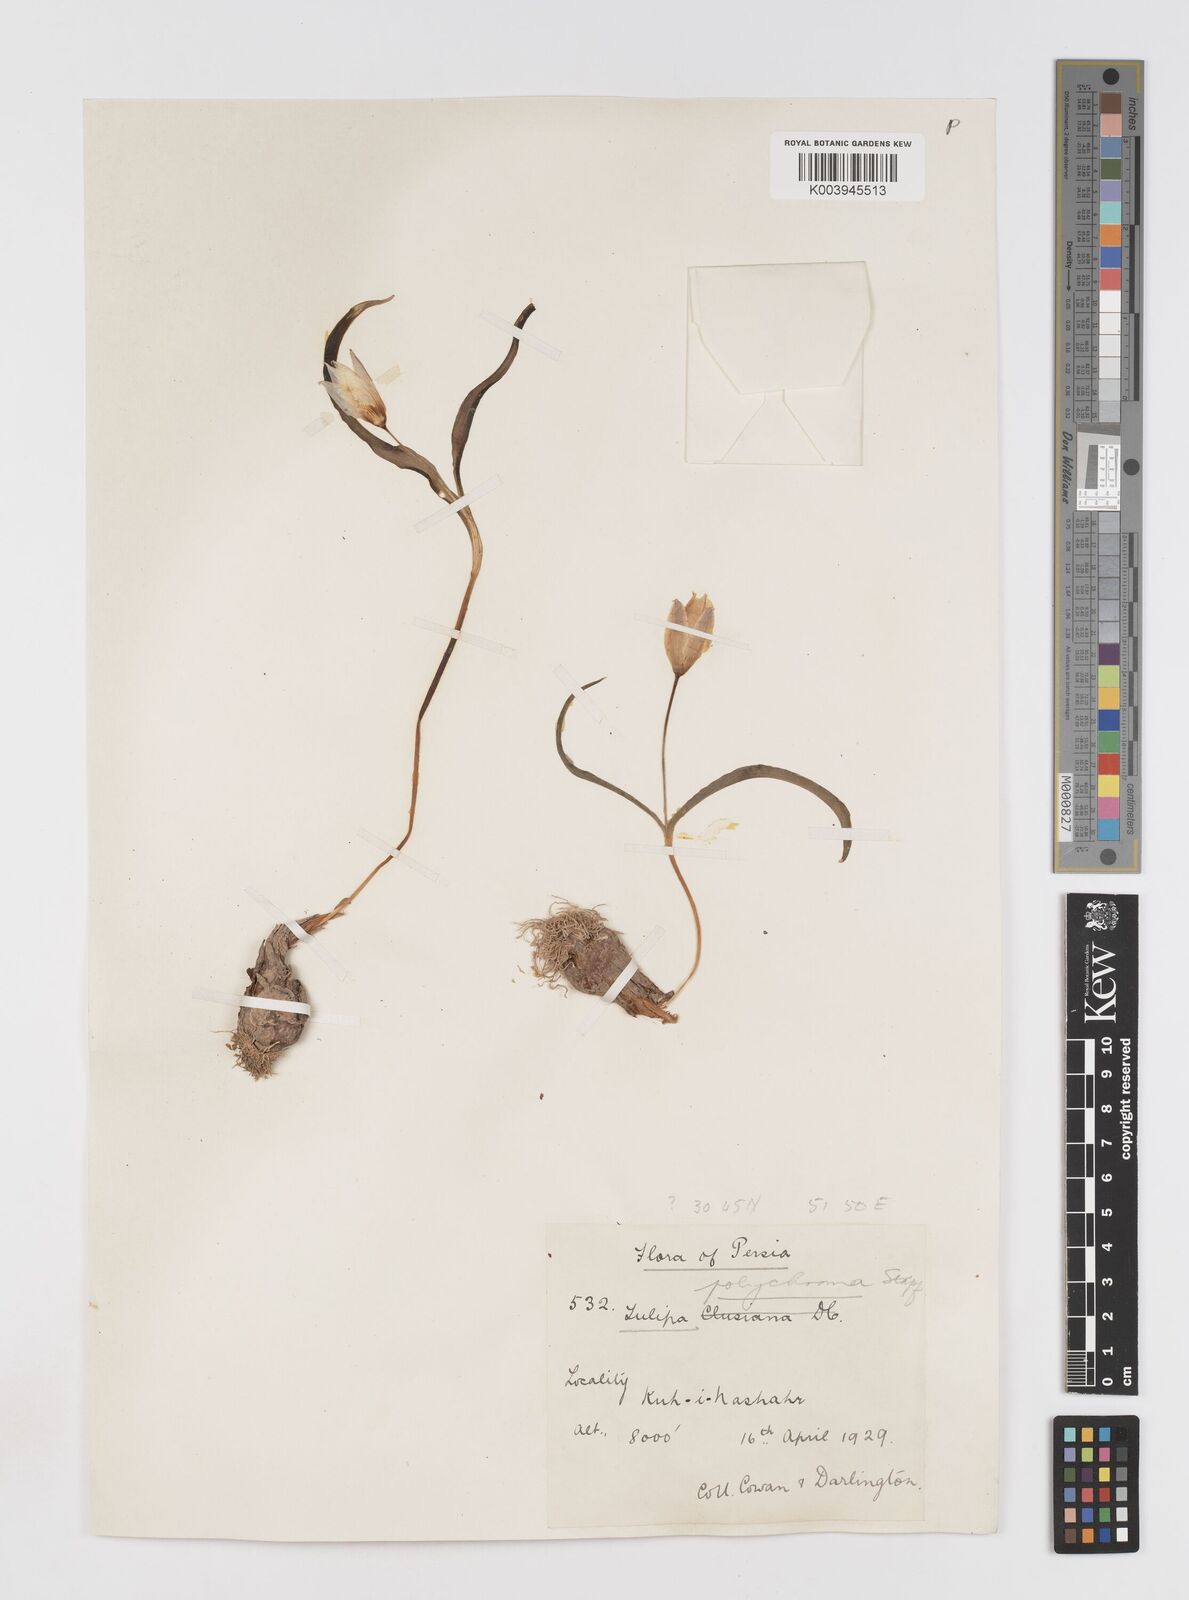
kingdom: Plantae
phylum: Tracheophyta
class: Liliopsida
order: Liliales
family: Liliaceae
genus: Tulipa
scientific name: Tulipa biflora
